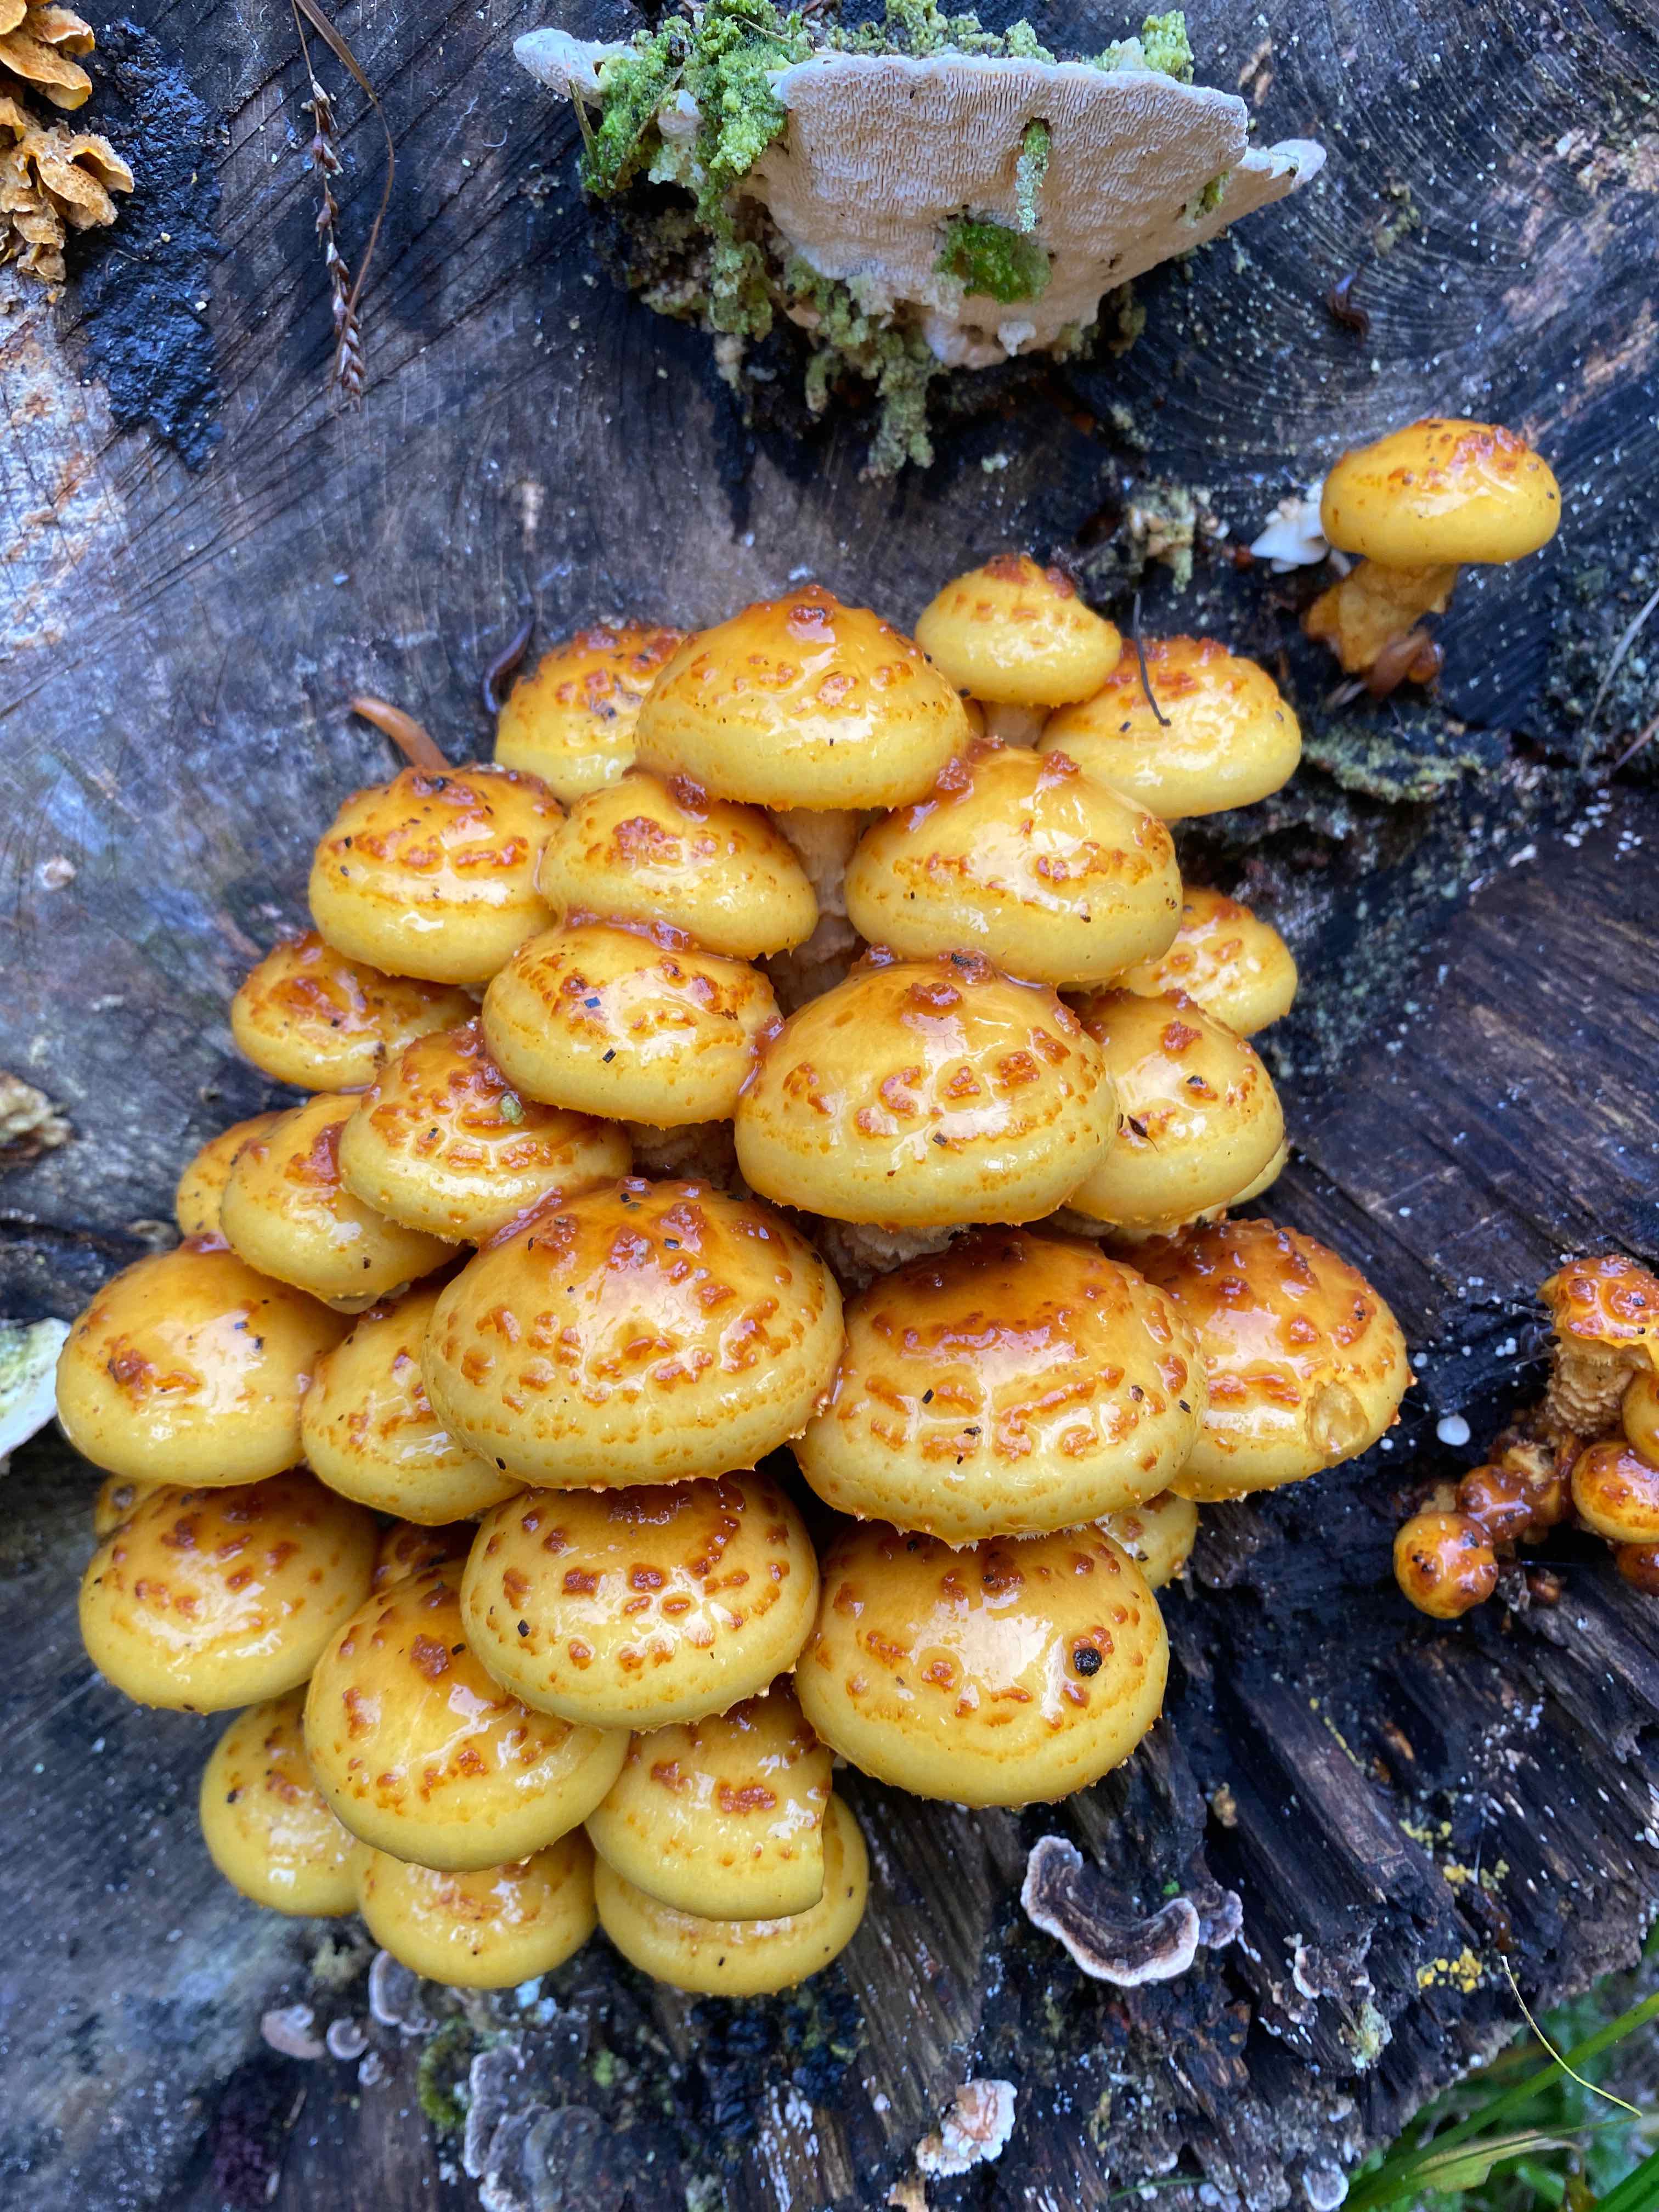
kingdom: Fungi
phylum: Basidiomycota
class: Agaricomycetes
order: Agaricales
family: Strophariaceae
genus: Pholiota
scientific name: Pholiota adiposa
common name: højtsiddende skælhat
